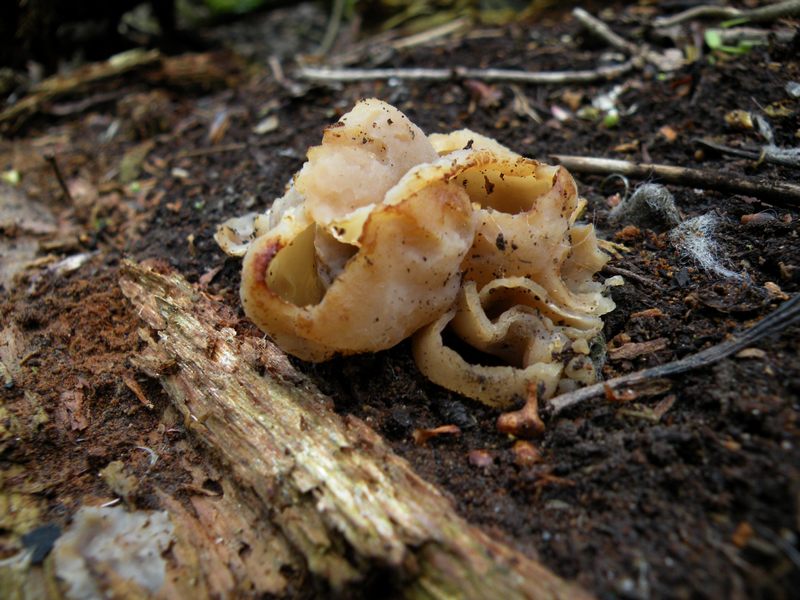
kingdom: Fungi
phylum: Ascomycota
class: Pezizomycetes
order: Pezizales
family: Pezizaceae
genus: Peziza
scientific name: Peziza varia
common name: Ved-bægersvamp
